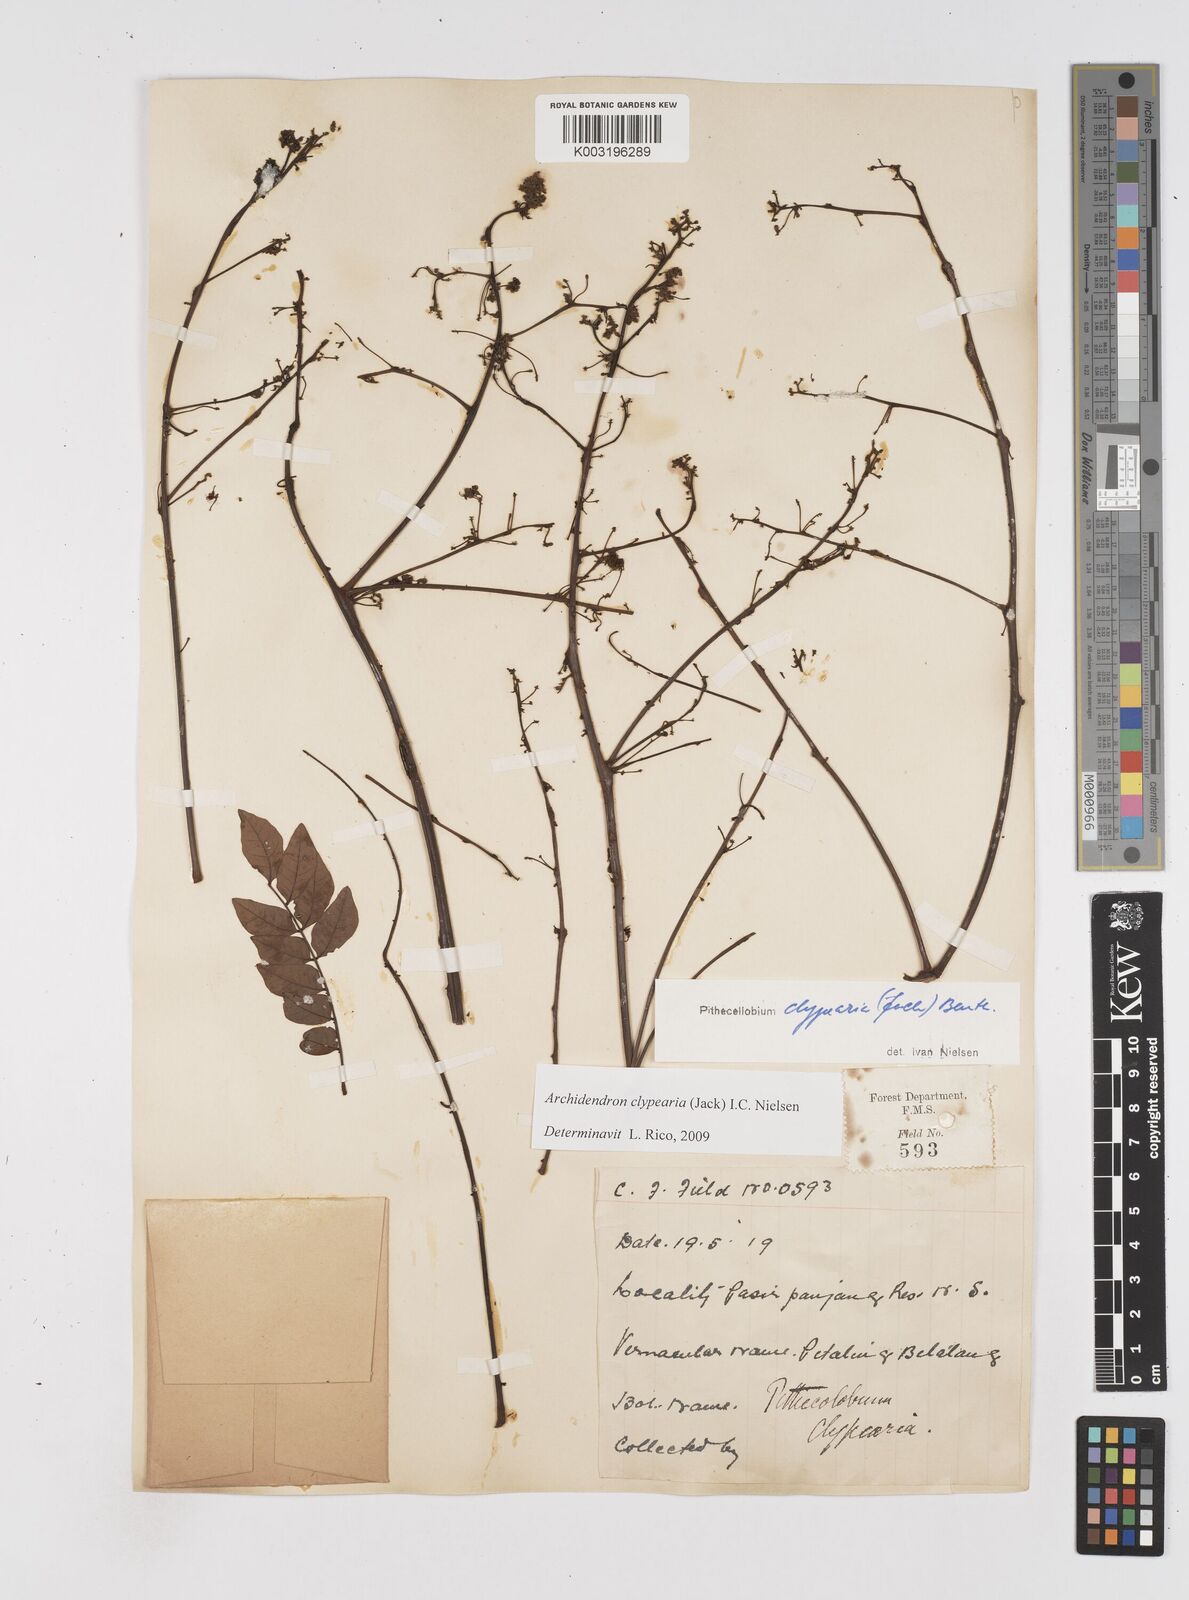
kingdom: Plantae
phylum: Tracheophyta
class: Magnoliopsida
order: Fabales
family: Fabaceae
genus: Archidendron
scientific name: Archidendron clypearia
